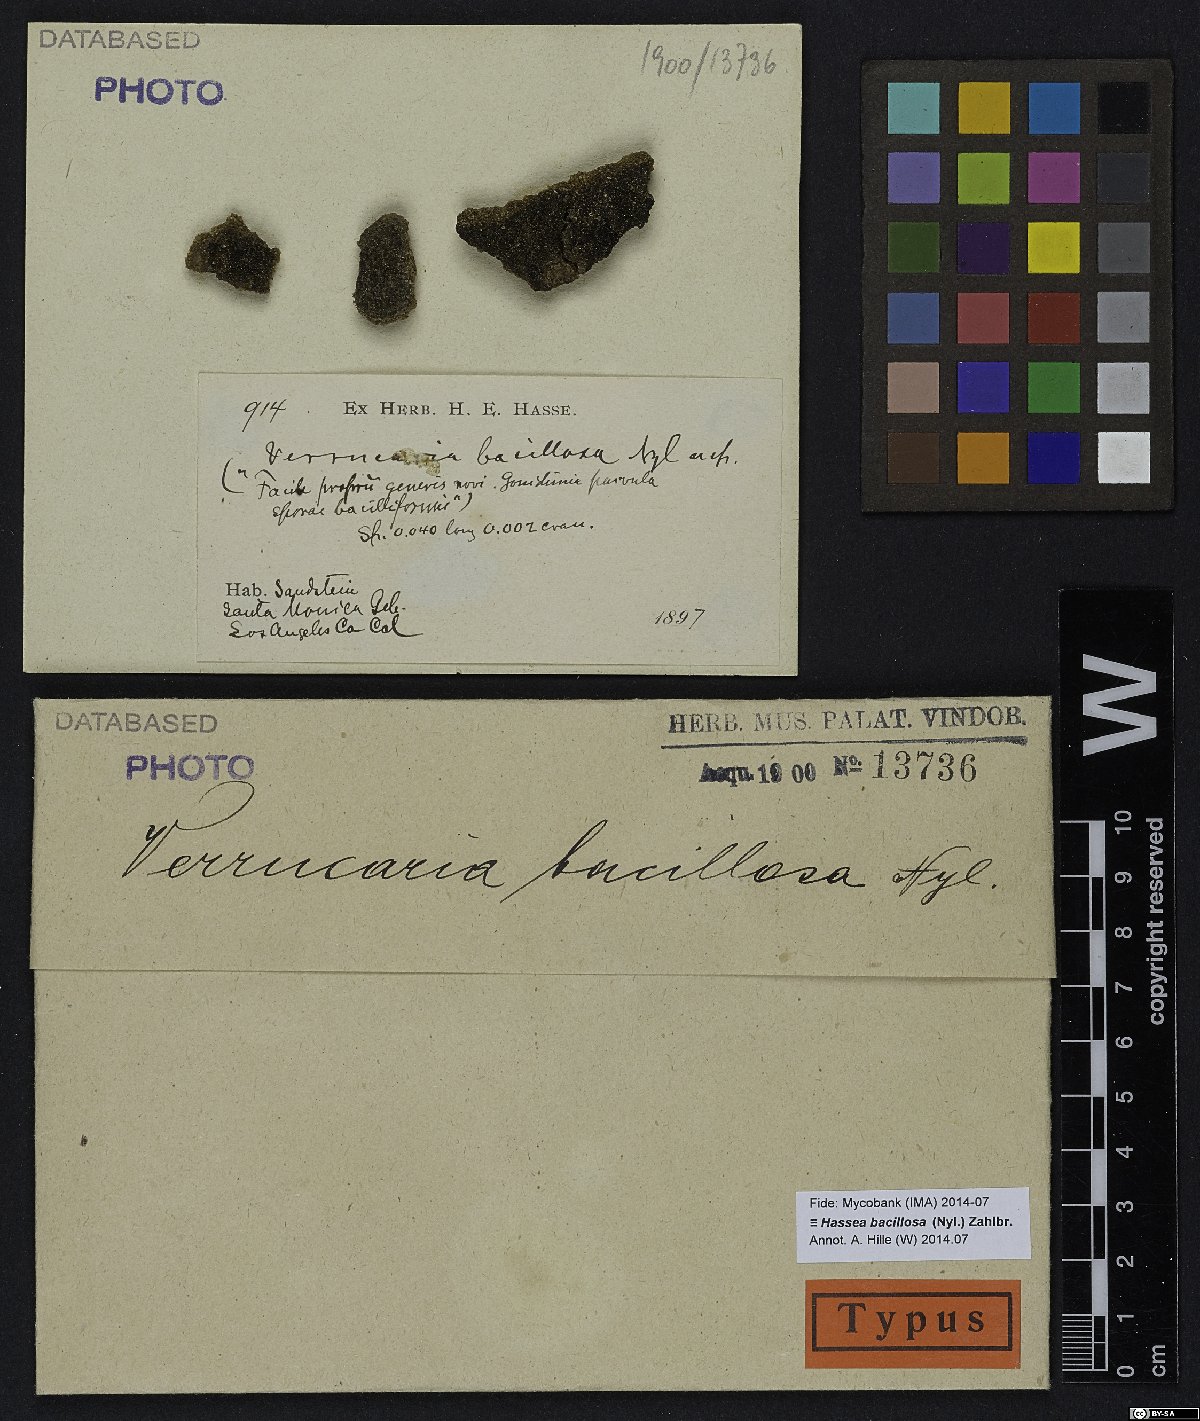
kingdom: Fungi
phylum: Ascomycota
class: Sordariomycetes
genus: Sarcopyrenia
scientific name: Sarcopyrenia bacillosa
